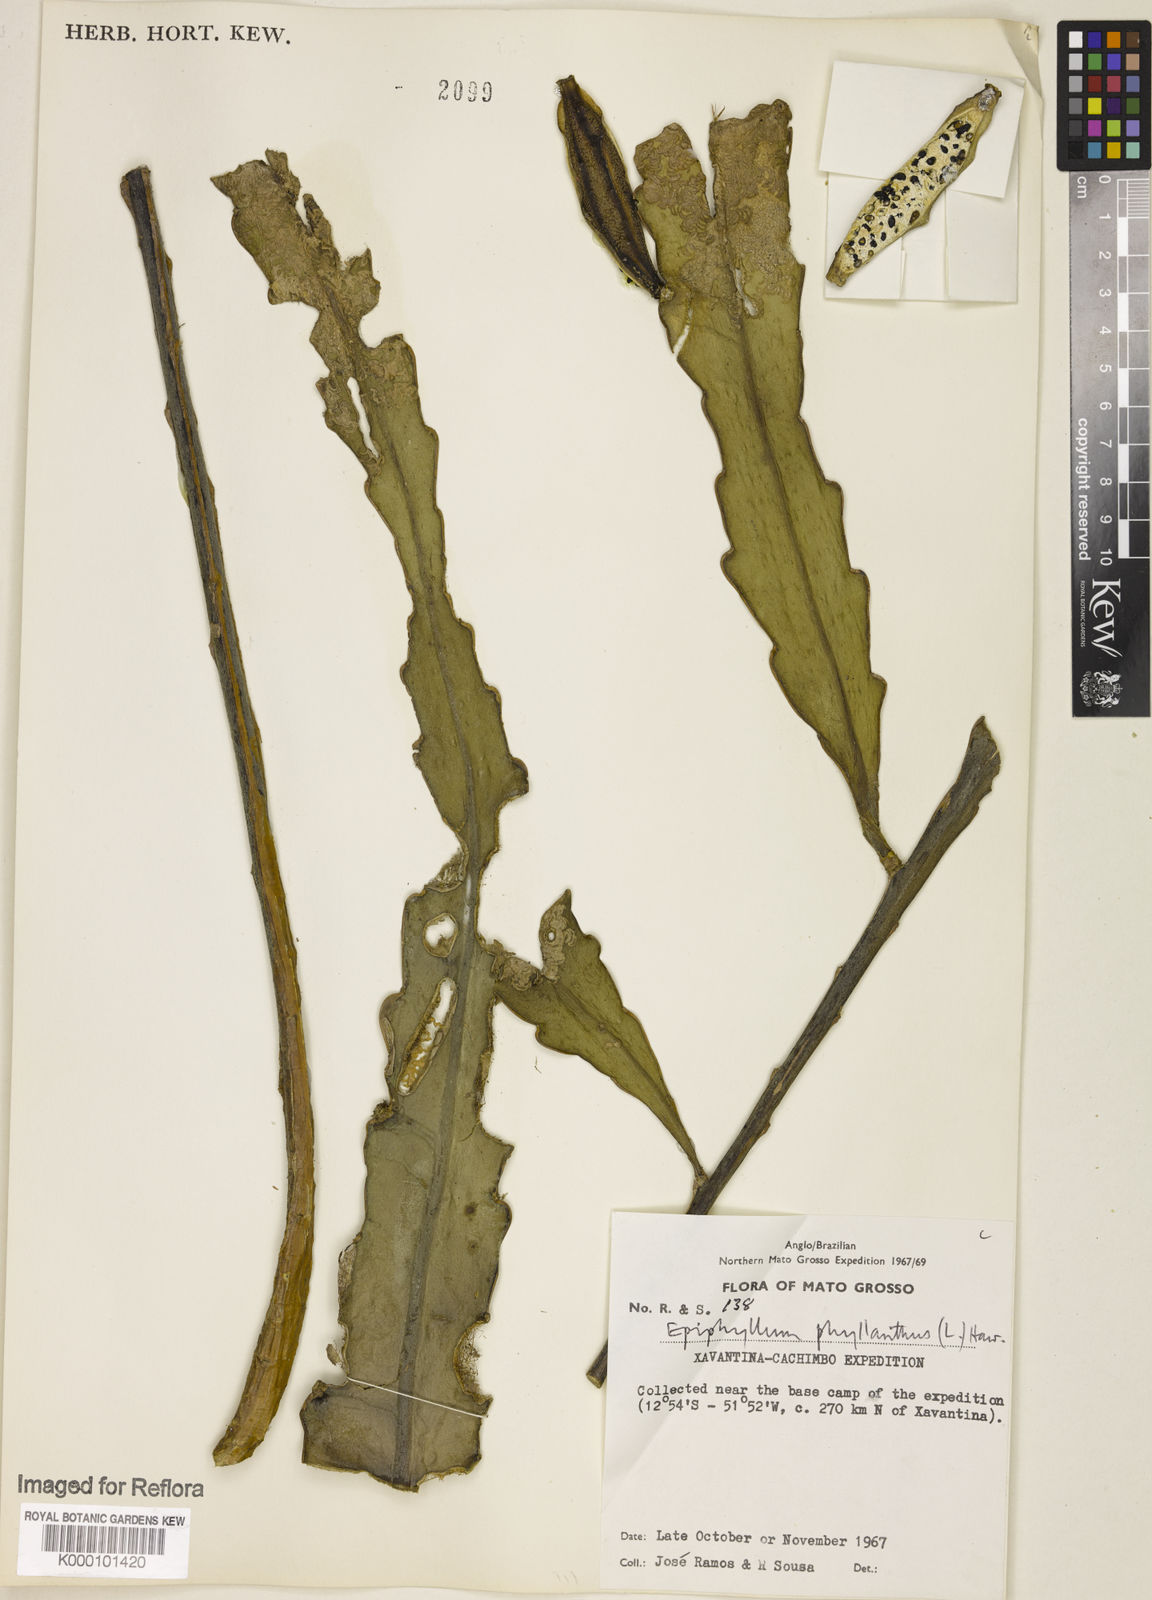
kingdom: Plantae
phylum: Tracheophyta
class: Magnoliopsida
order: Caryophyllales
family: Cactaceae
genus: Epiphyllum
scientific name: Epiphyllum phyllanthus
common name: Climbing cactus
